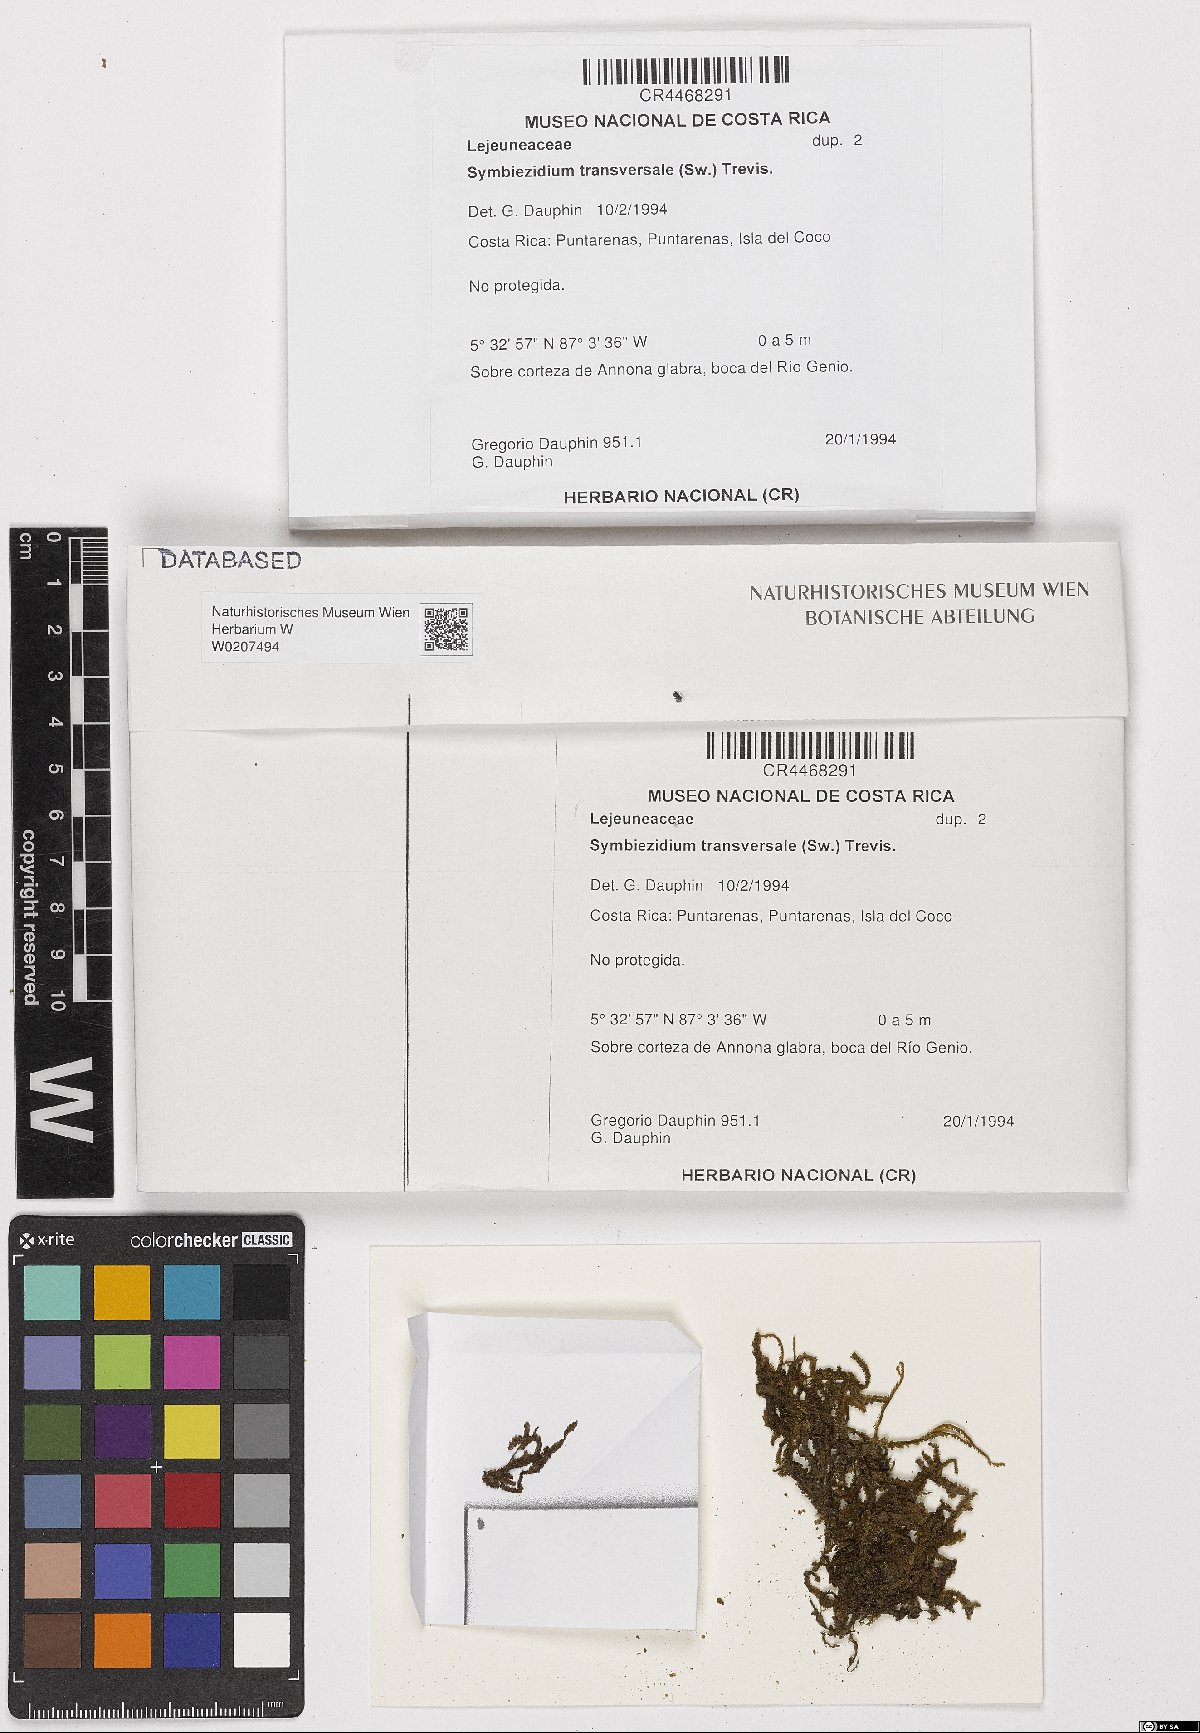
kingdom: Plantae
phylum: Marchantiophyta
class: Jungermanniopsida
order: Porellales
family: Lejeuneaceae
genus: Symbiezidium
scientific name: Symbiezidium transversale
